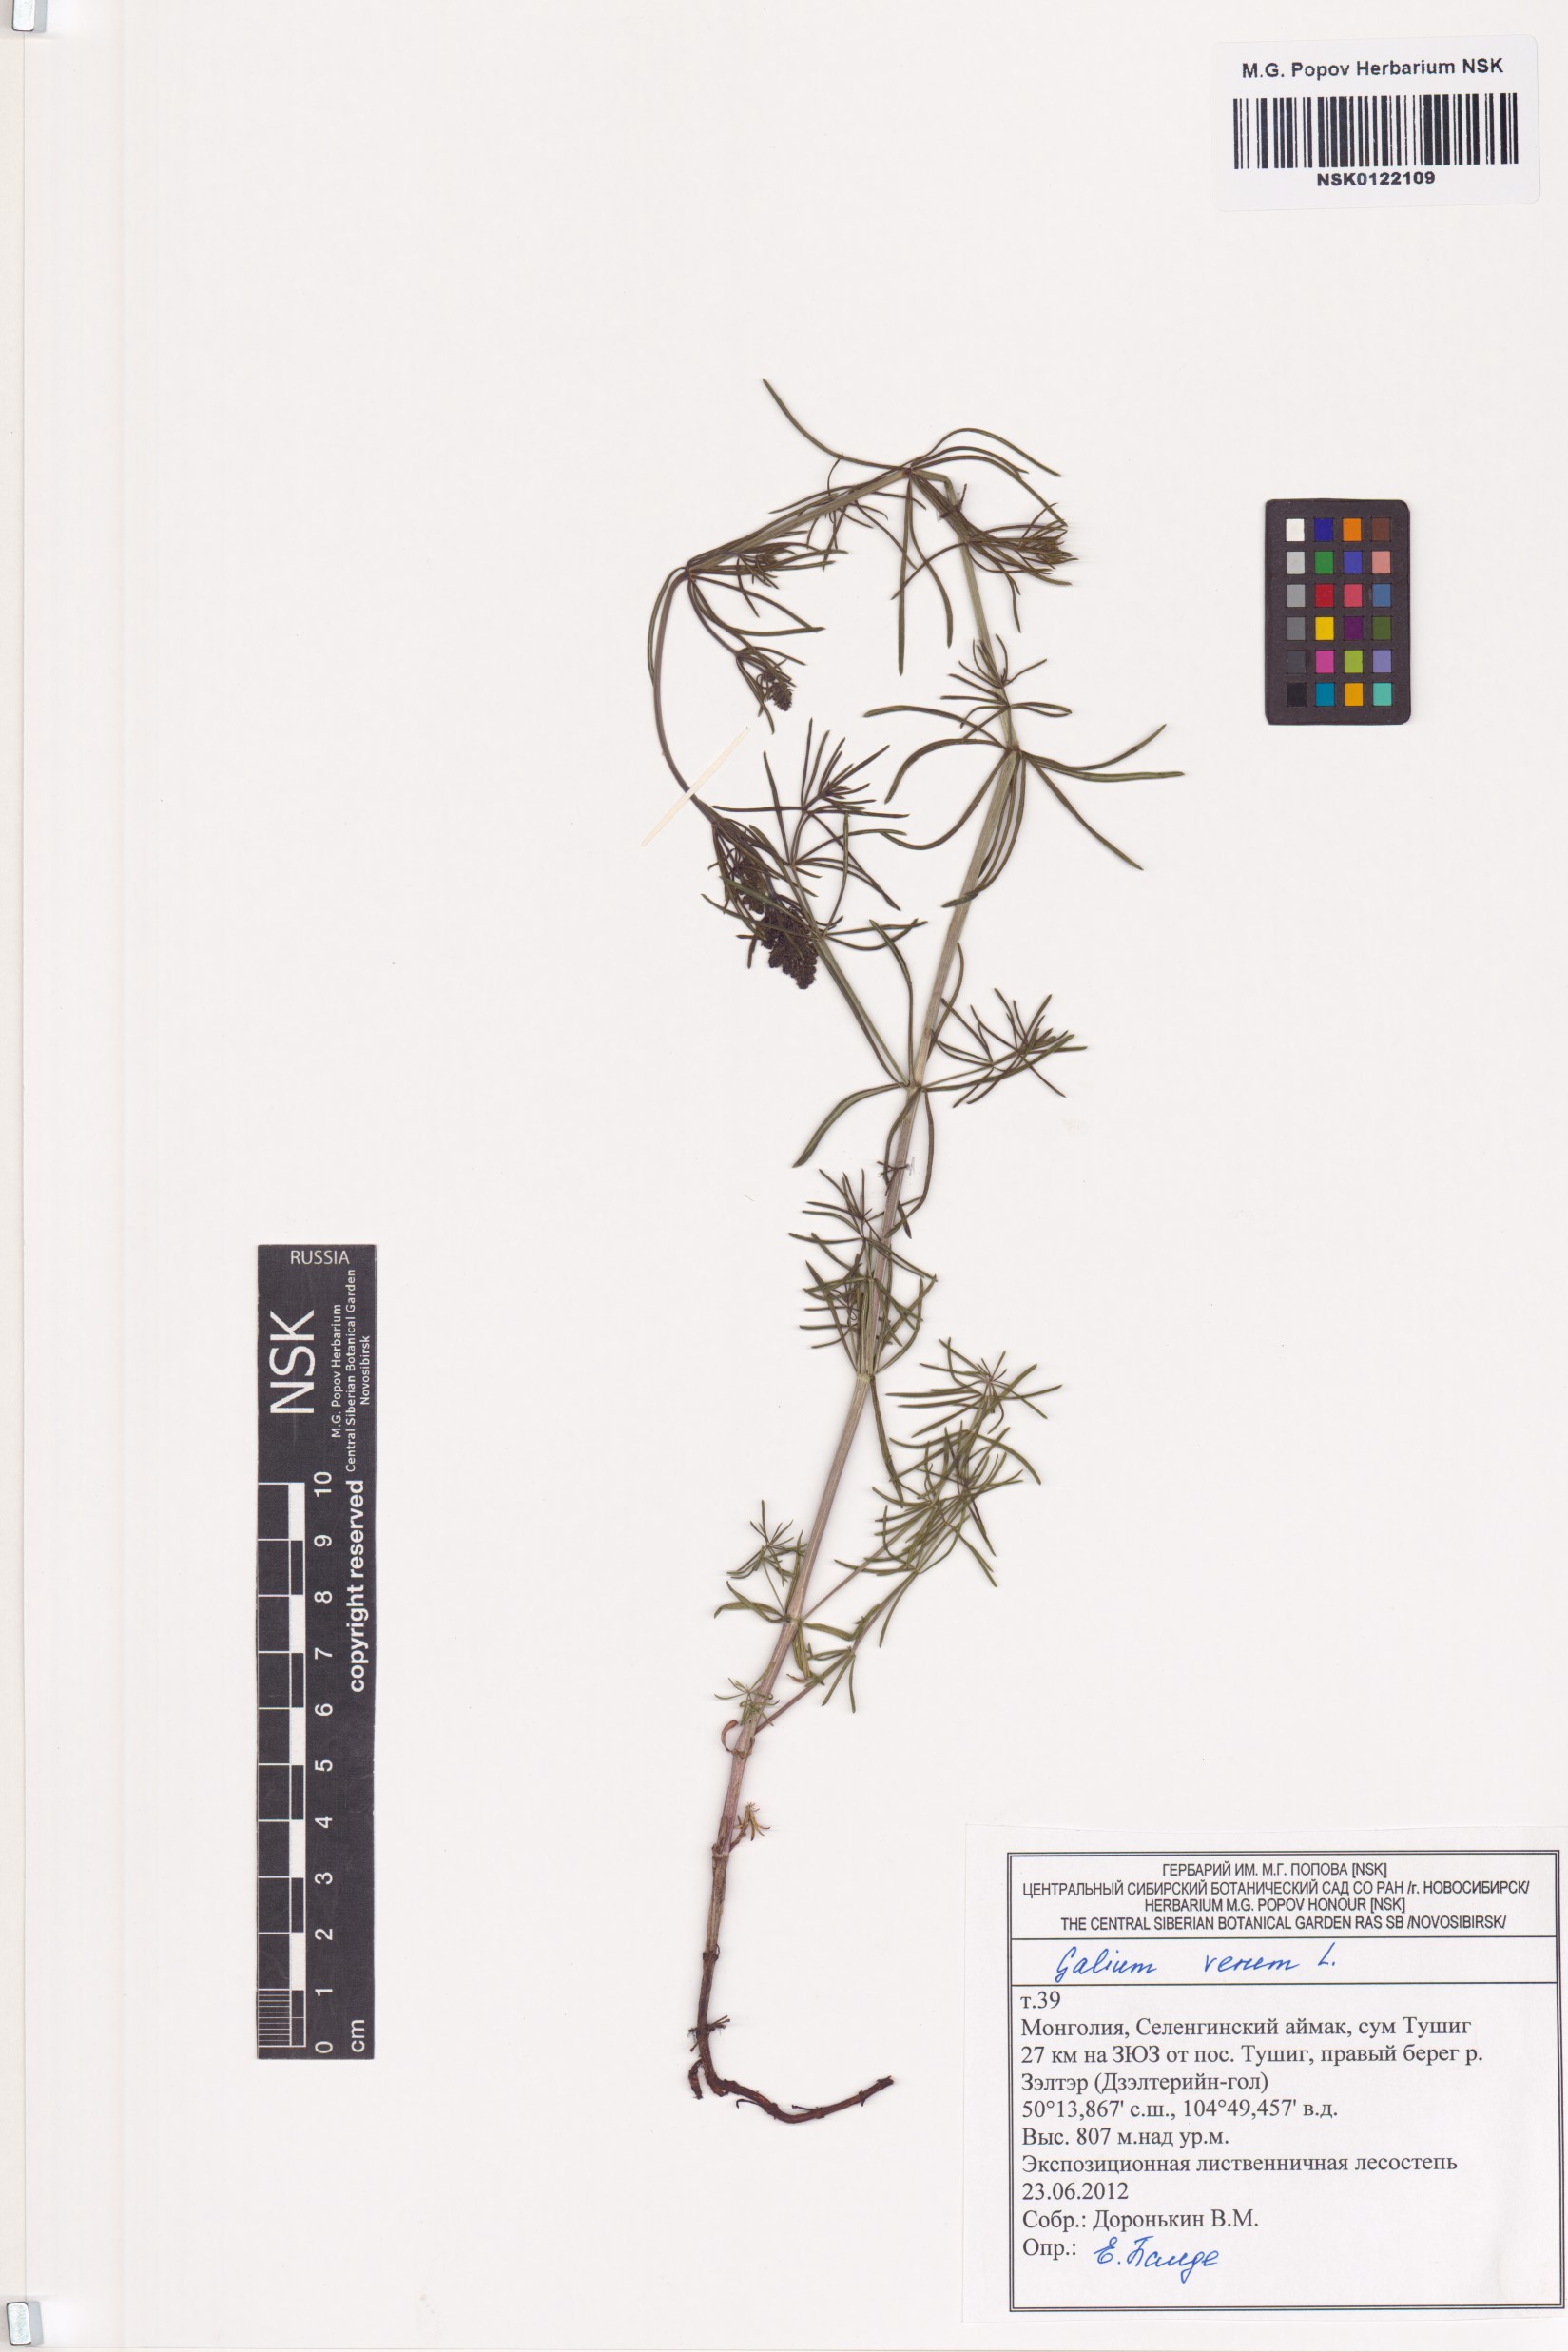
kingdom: Plantae
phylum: Tracheophyta
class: Magnoliopsida
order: Gentianales
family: Rubiaceae
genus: Galium
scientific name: Galium verum
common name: Lady's bedstraw
